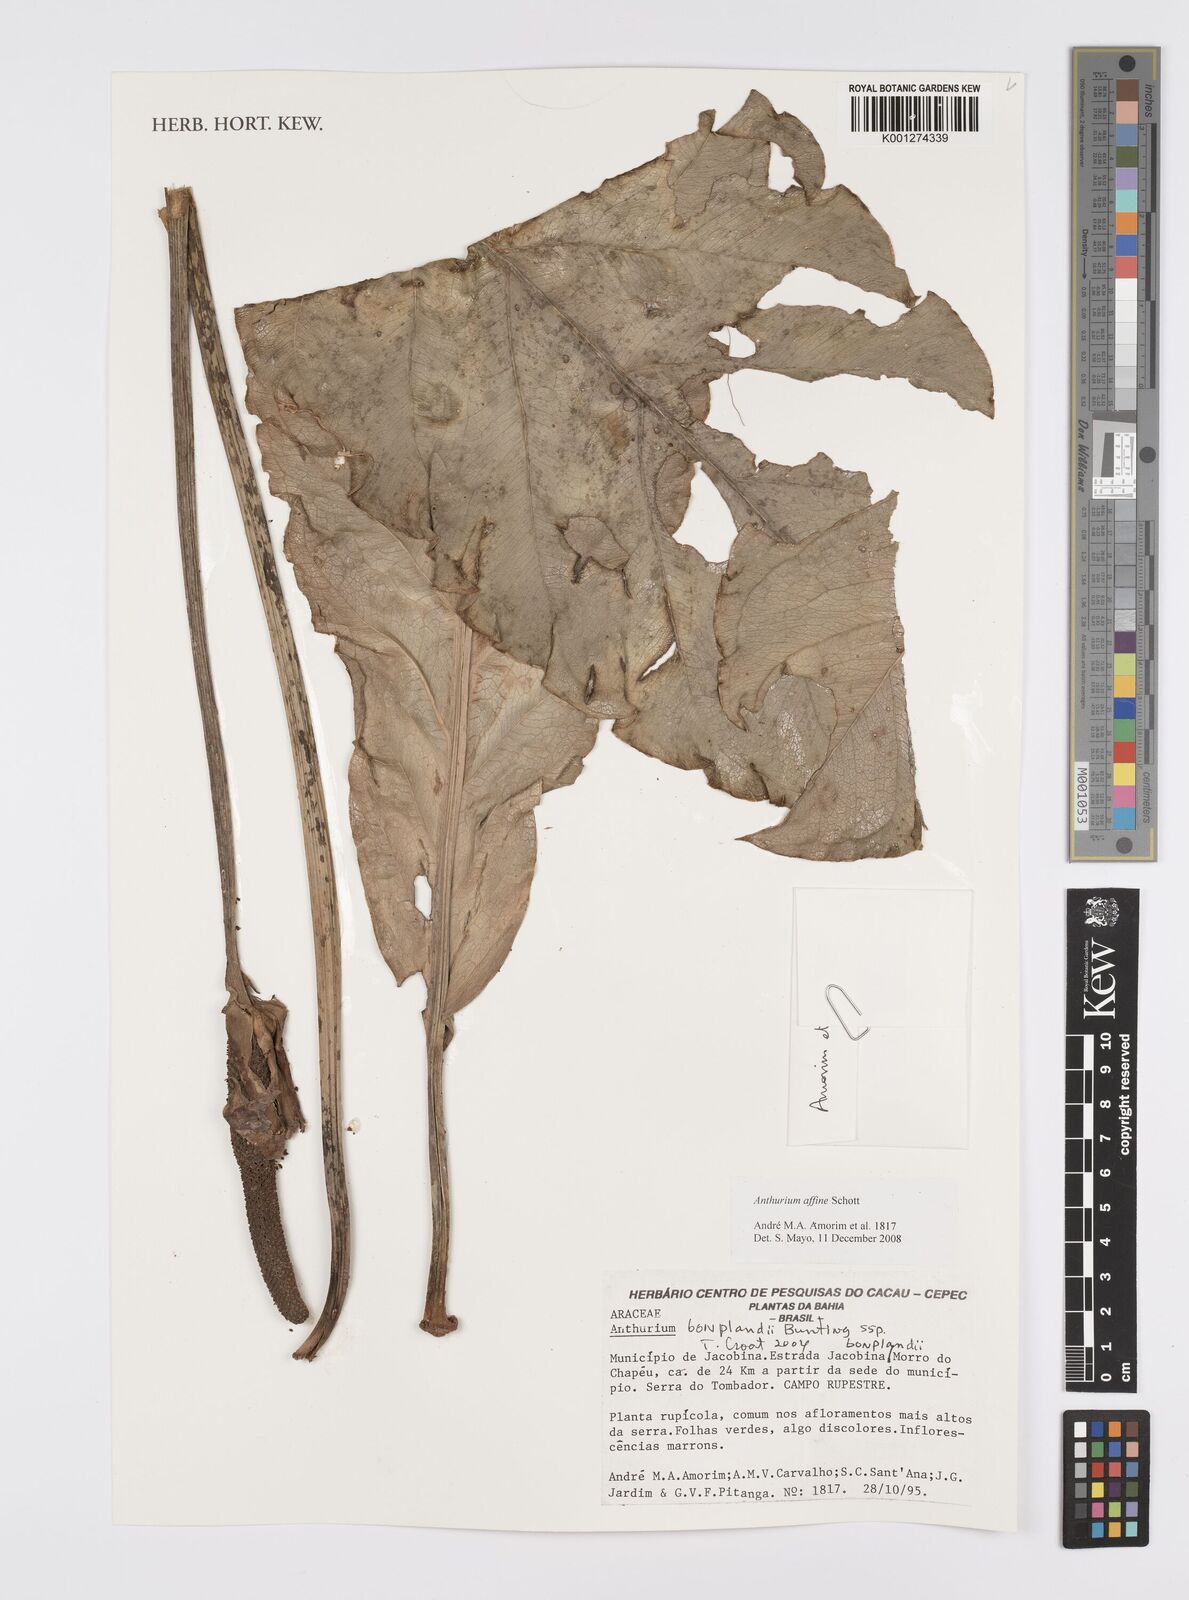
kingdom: Plantae
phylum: Tracheophyta
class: Liliopsida
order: Alismatales
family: Araceae
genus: Anthurium
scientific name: Anthurium affine
